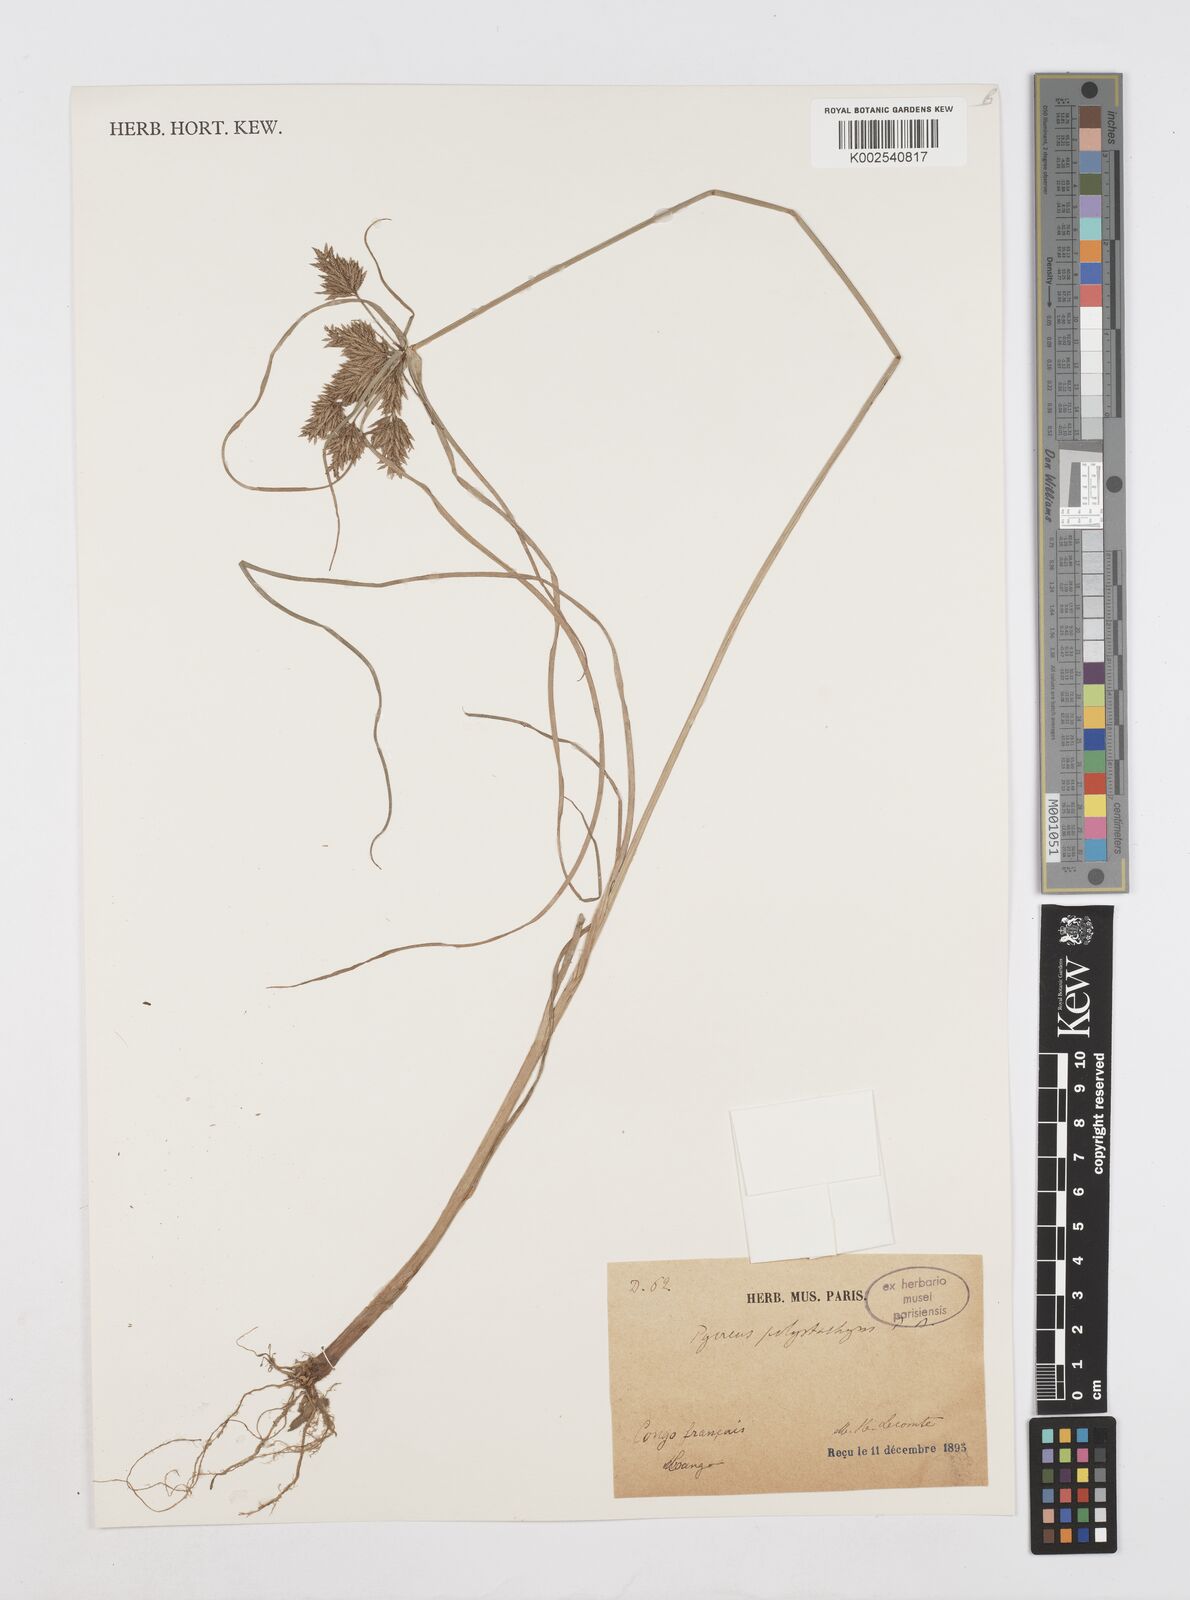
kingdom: Plantae
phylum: Tracheophyta
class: Liliopsida
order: Poales
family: Cyperaceae
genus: Cyperus
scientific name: Cyperus polystachyos
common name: Bunchy flat sedge
